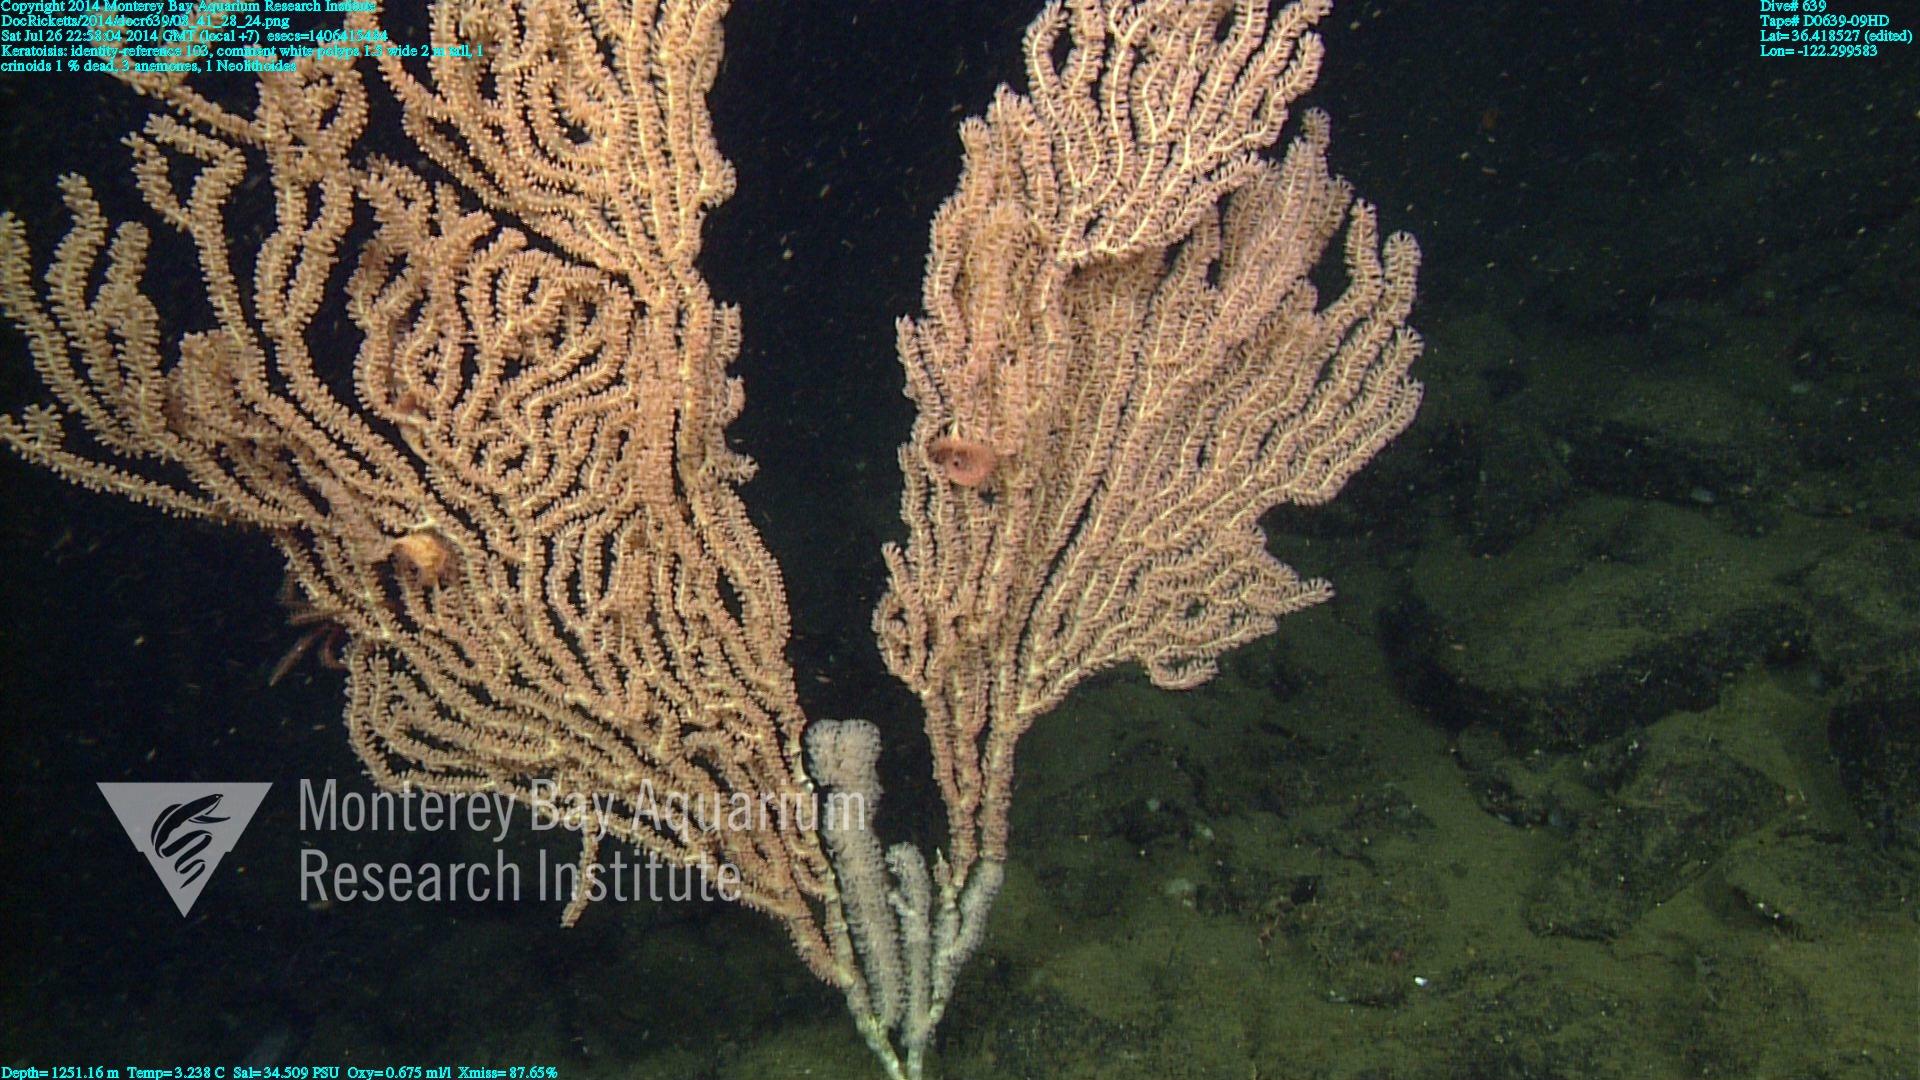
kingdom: Animalia
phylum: Cnidaria
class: Anthozoa
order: Scleralcyonacea
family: Keratoisididae
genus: Keratoisis
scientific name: Keratoisis
